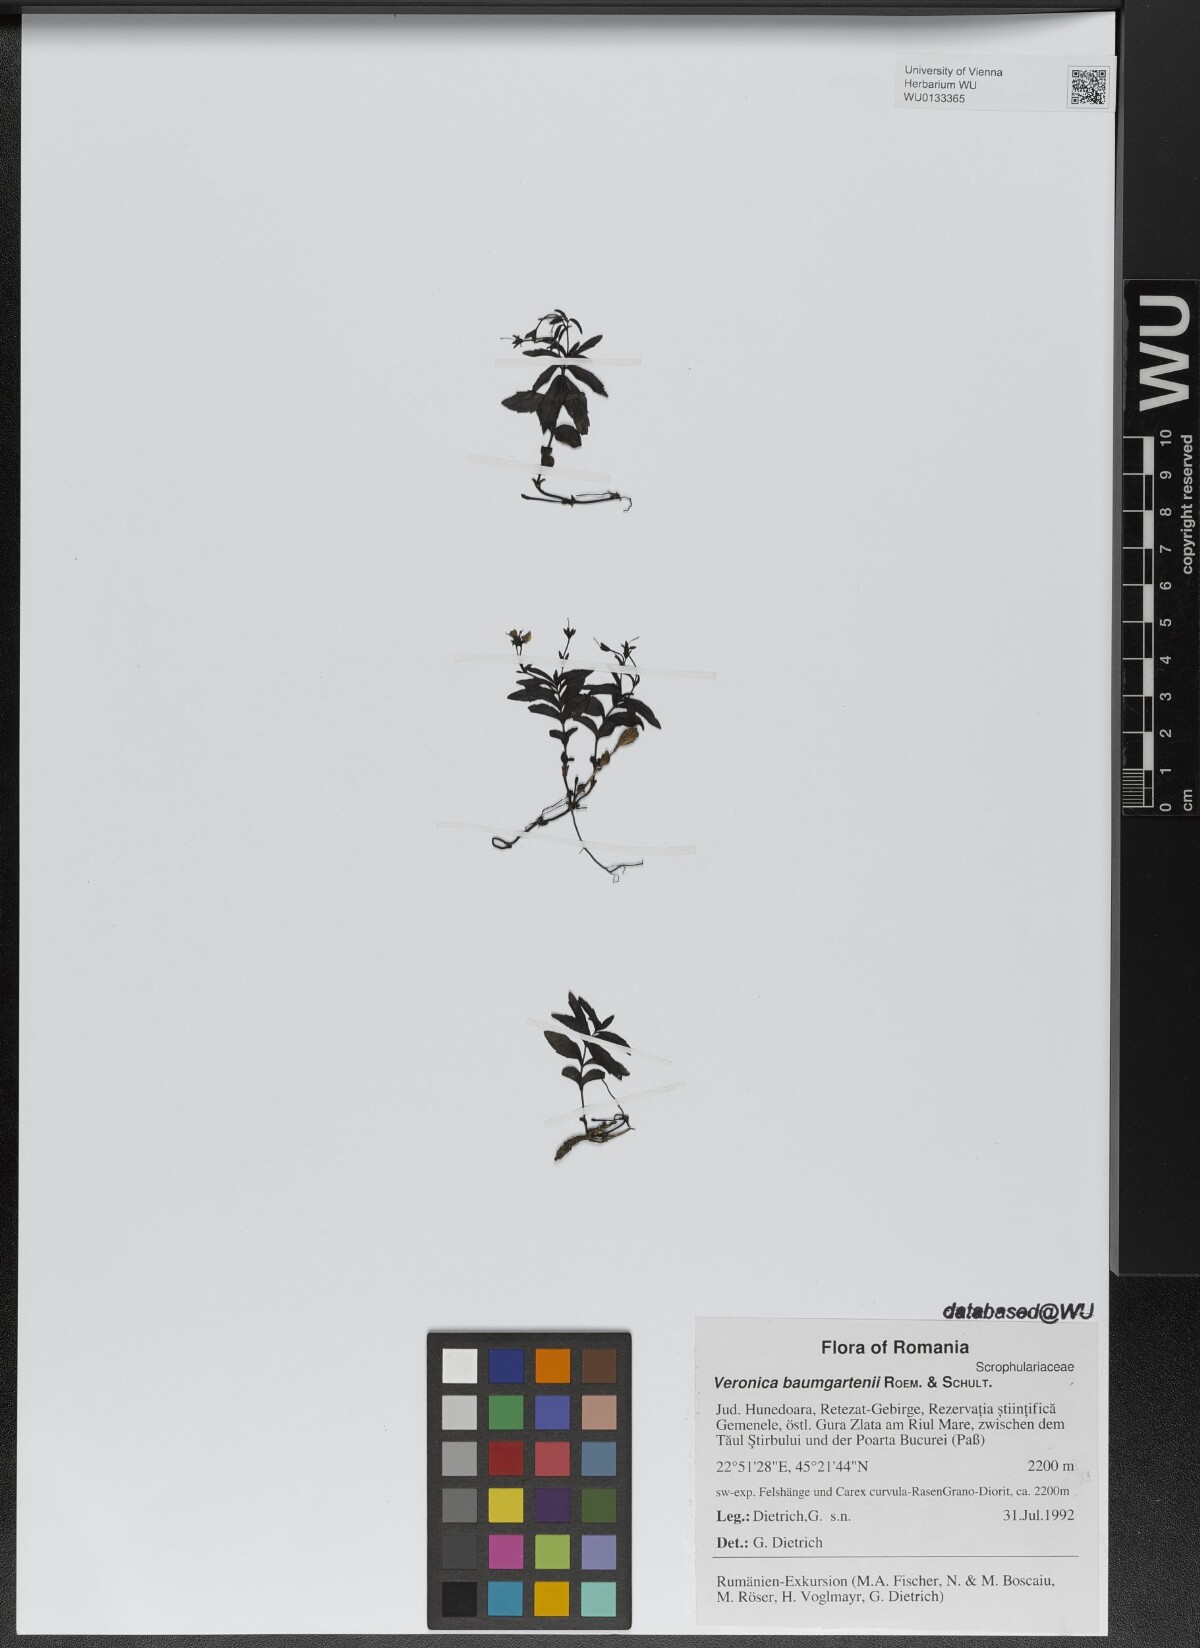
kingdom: Plantae
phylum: Tracheophyta
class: Magnoliopsida
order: Lamiales
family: Plantaginaceae
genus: Veronica
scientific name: Veronica baumgartenii
